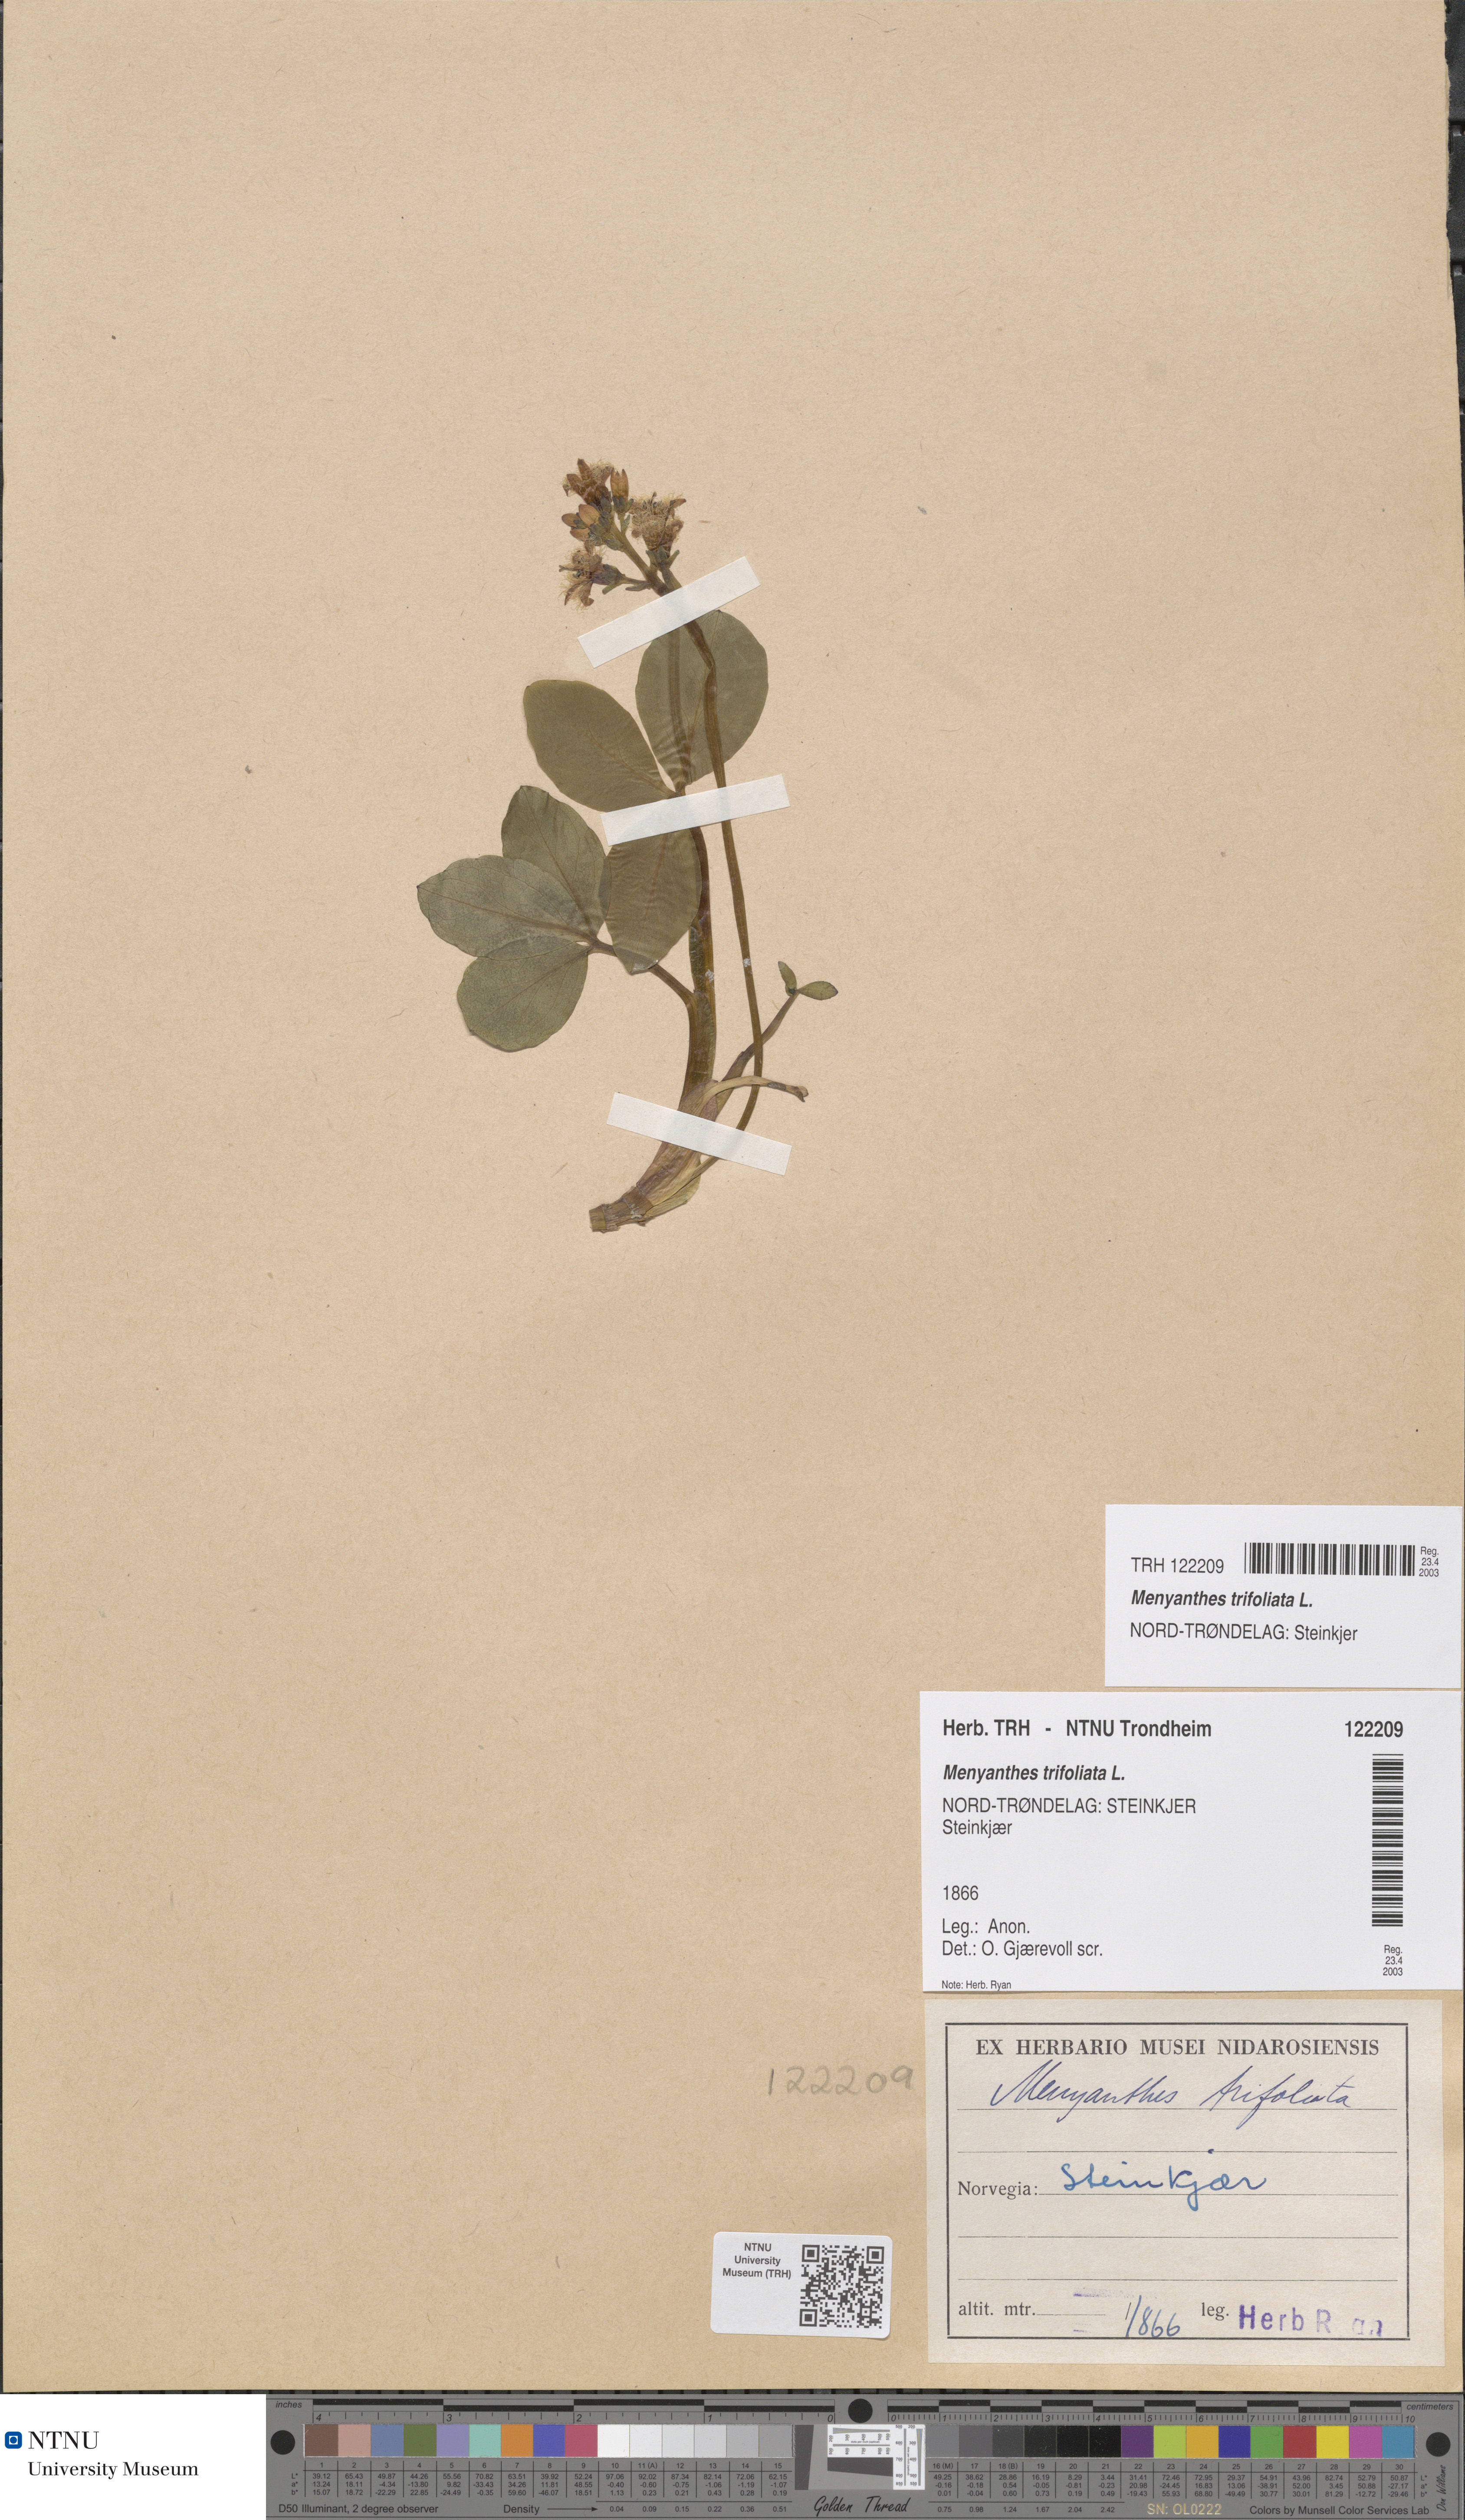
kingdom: Plantae
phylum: Tracheophyta
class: Magnoliopsida
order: Asterales
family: Menyanthaceae
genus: Menyanthes
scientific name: Menyanthes trifoliata
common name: Bogbean
